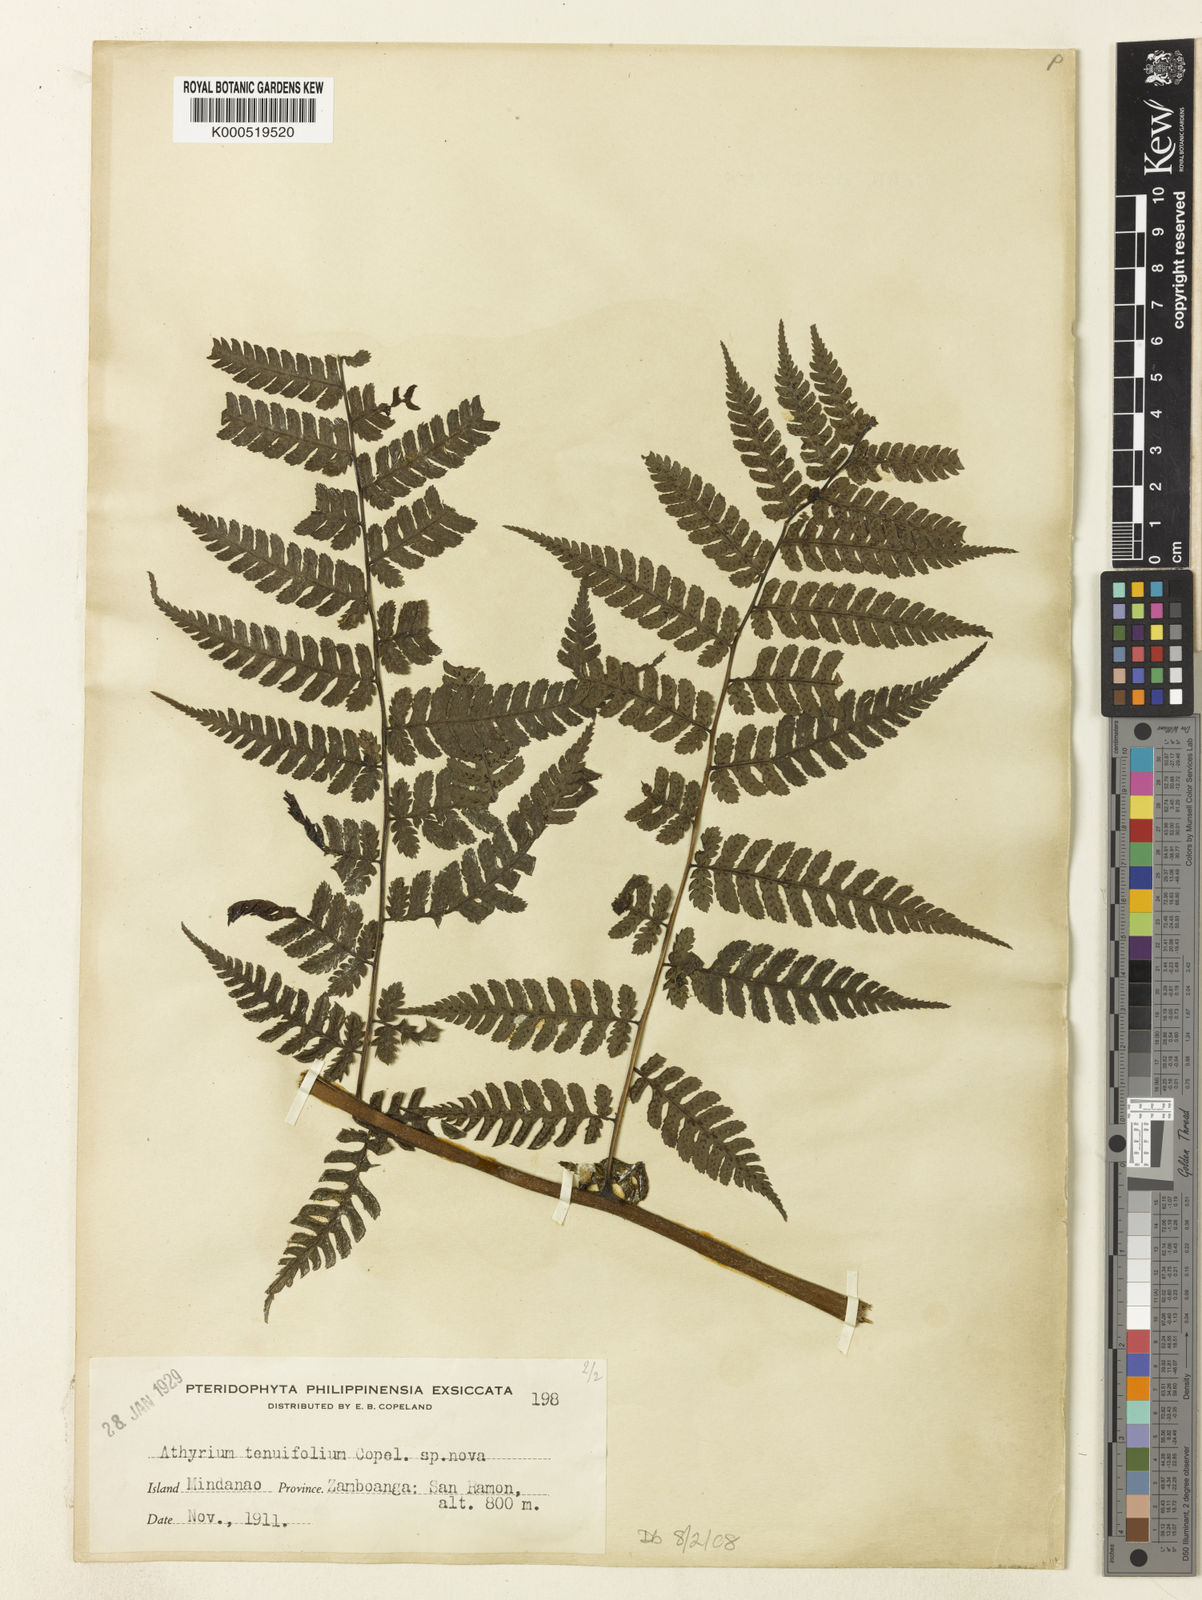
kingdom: Plantae
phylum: Tracheophyta
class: Polypodiopsida
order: Polypodiales
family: Athyriaceae
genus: Diplazium
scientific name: Diplazium tenuifolium
